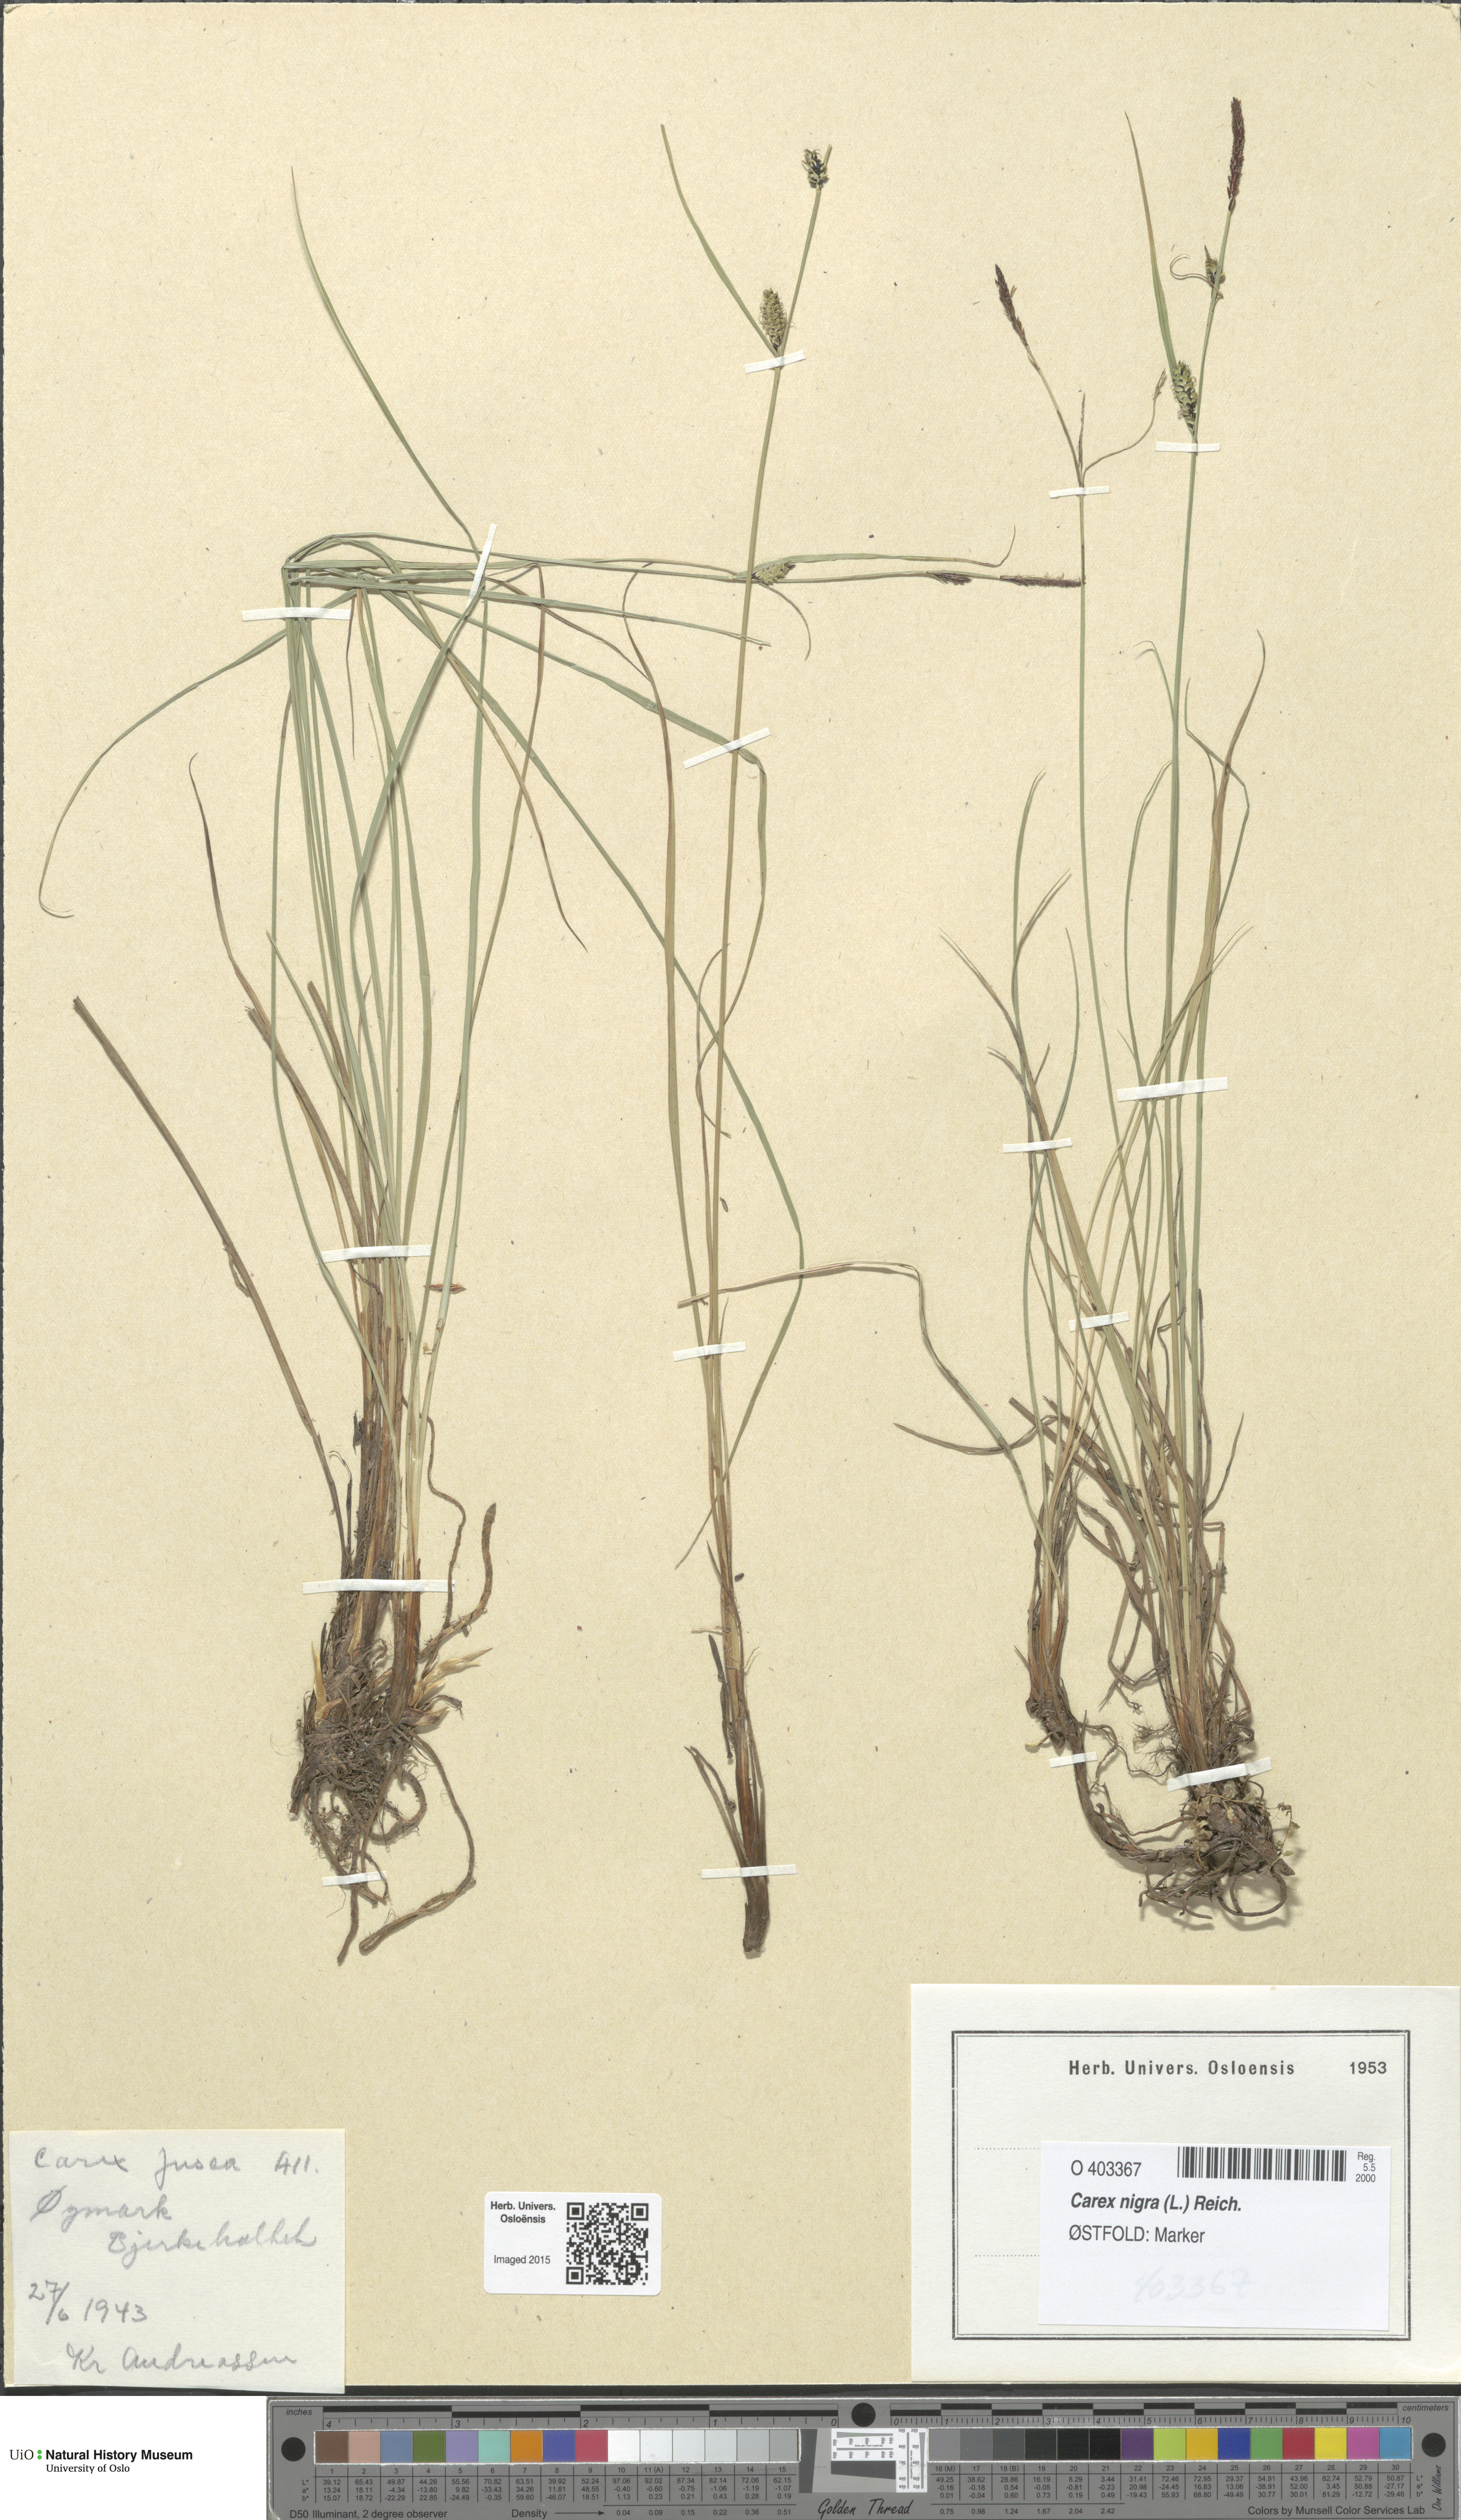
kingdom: Plantae
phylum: Tracheophyta
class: Liliopsida
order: Poales
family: Cyperaceae
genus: Carex
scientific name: Carex nigra
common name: Common sedge
